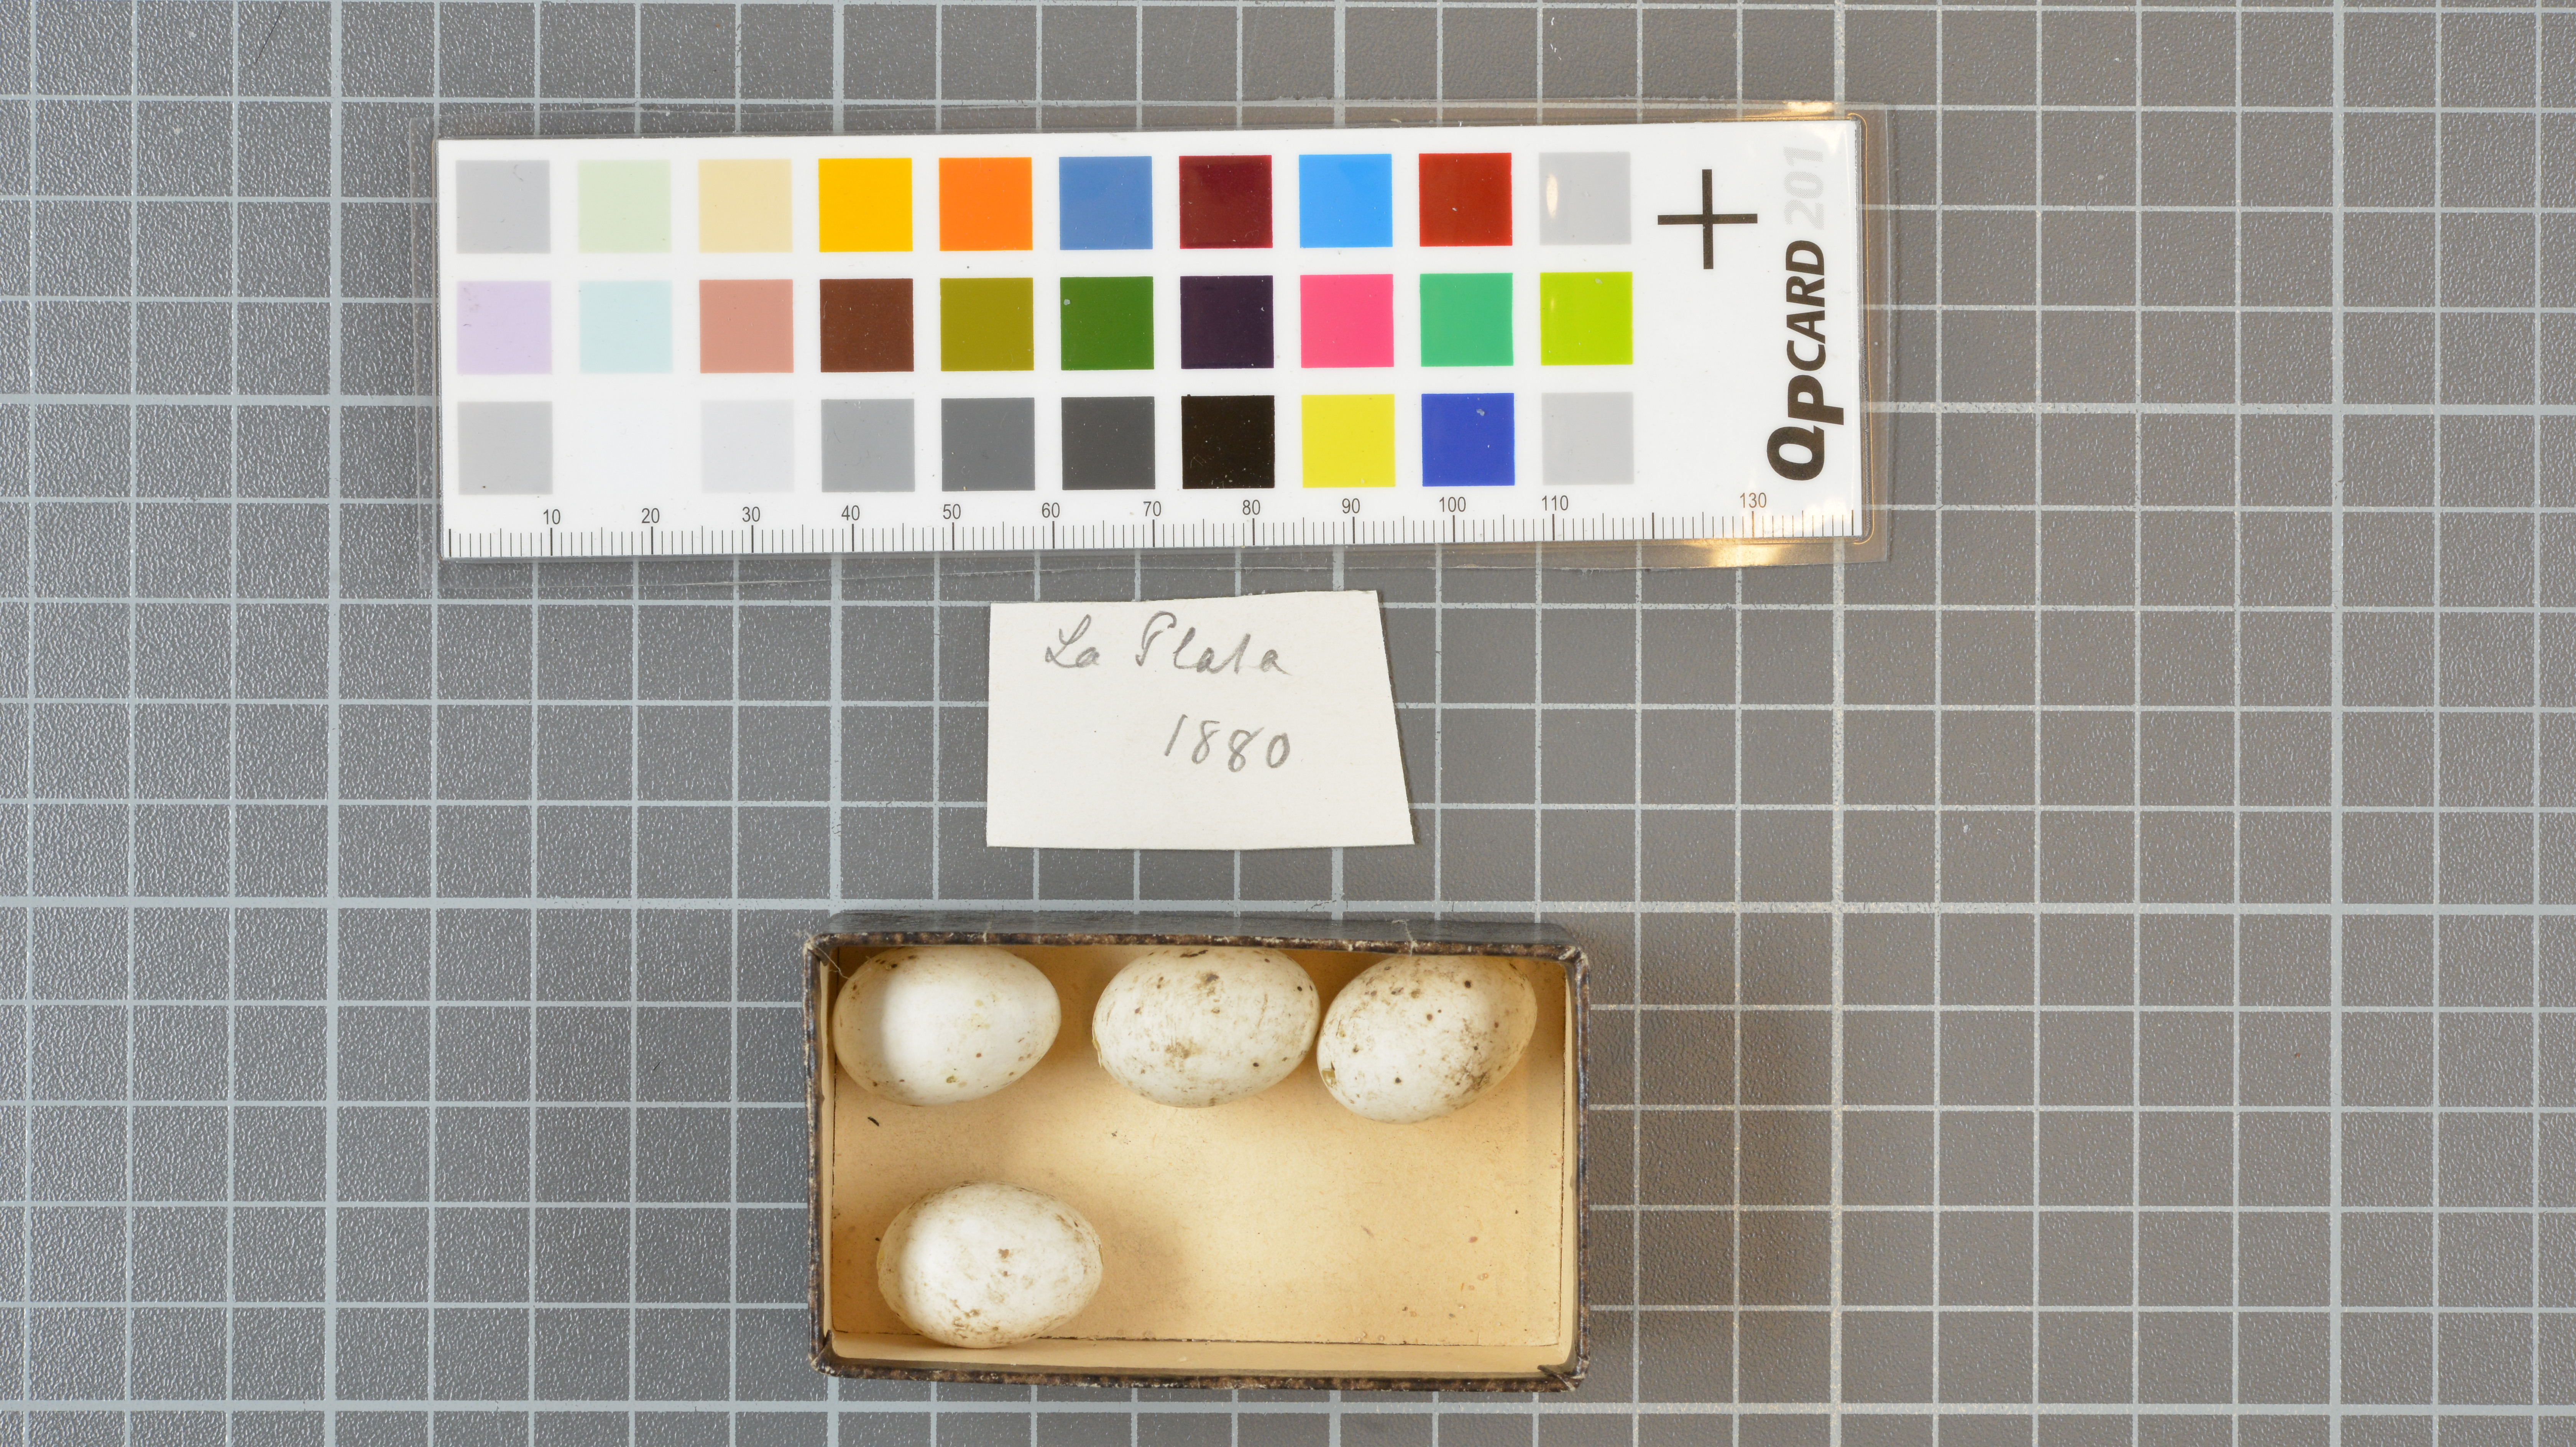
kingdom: Animalia
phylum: Chordata
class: Aves
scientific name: Aves
